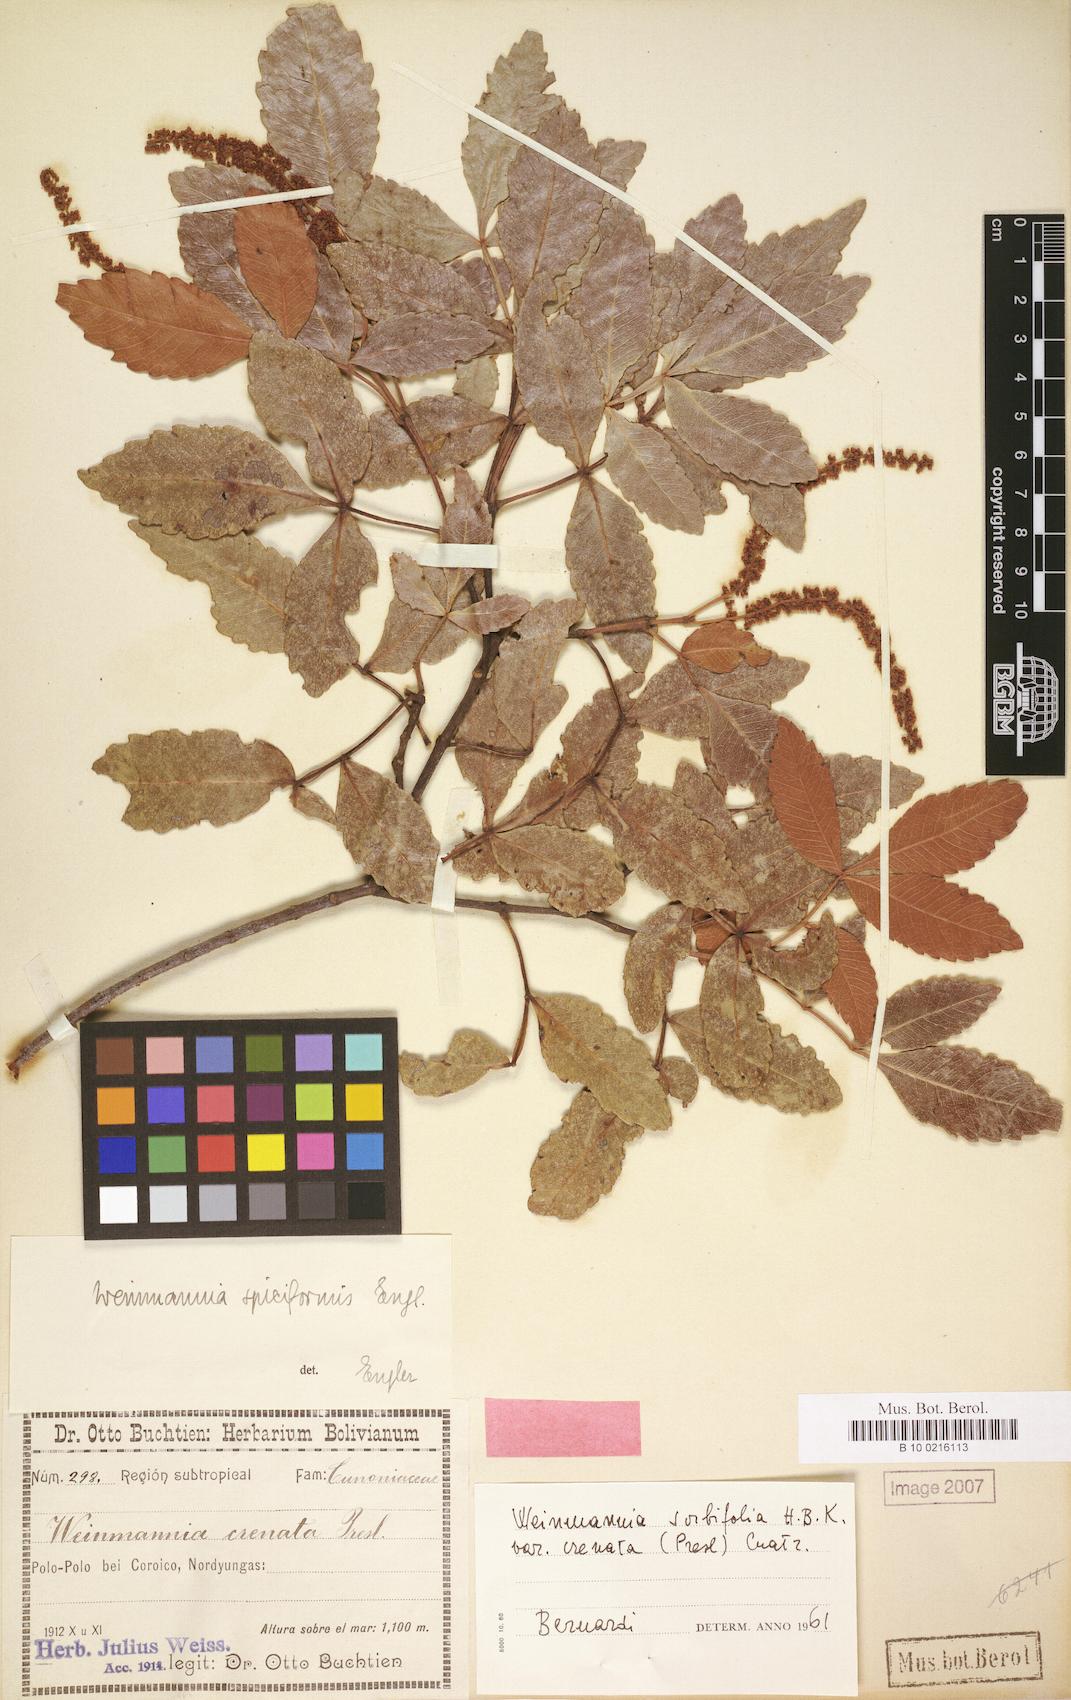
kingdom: Plantae
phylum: Tracheophyta
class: Magnoliopsida
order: Oxalidales
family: Cunoniaceae
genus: Weinmannia
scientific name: Weinmannia
